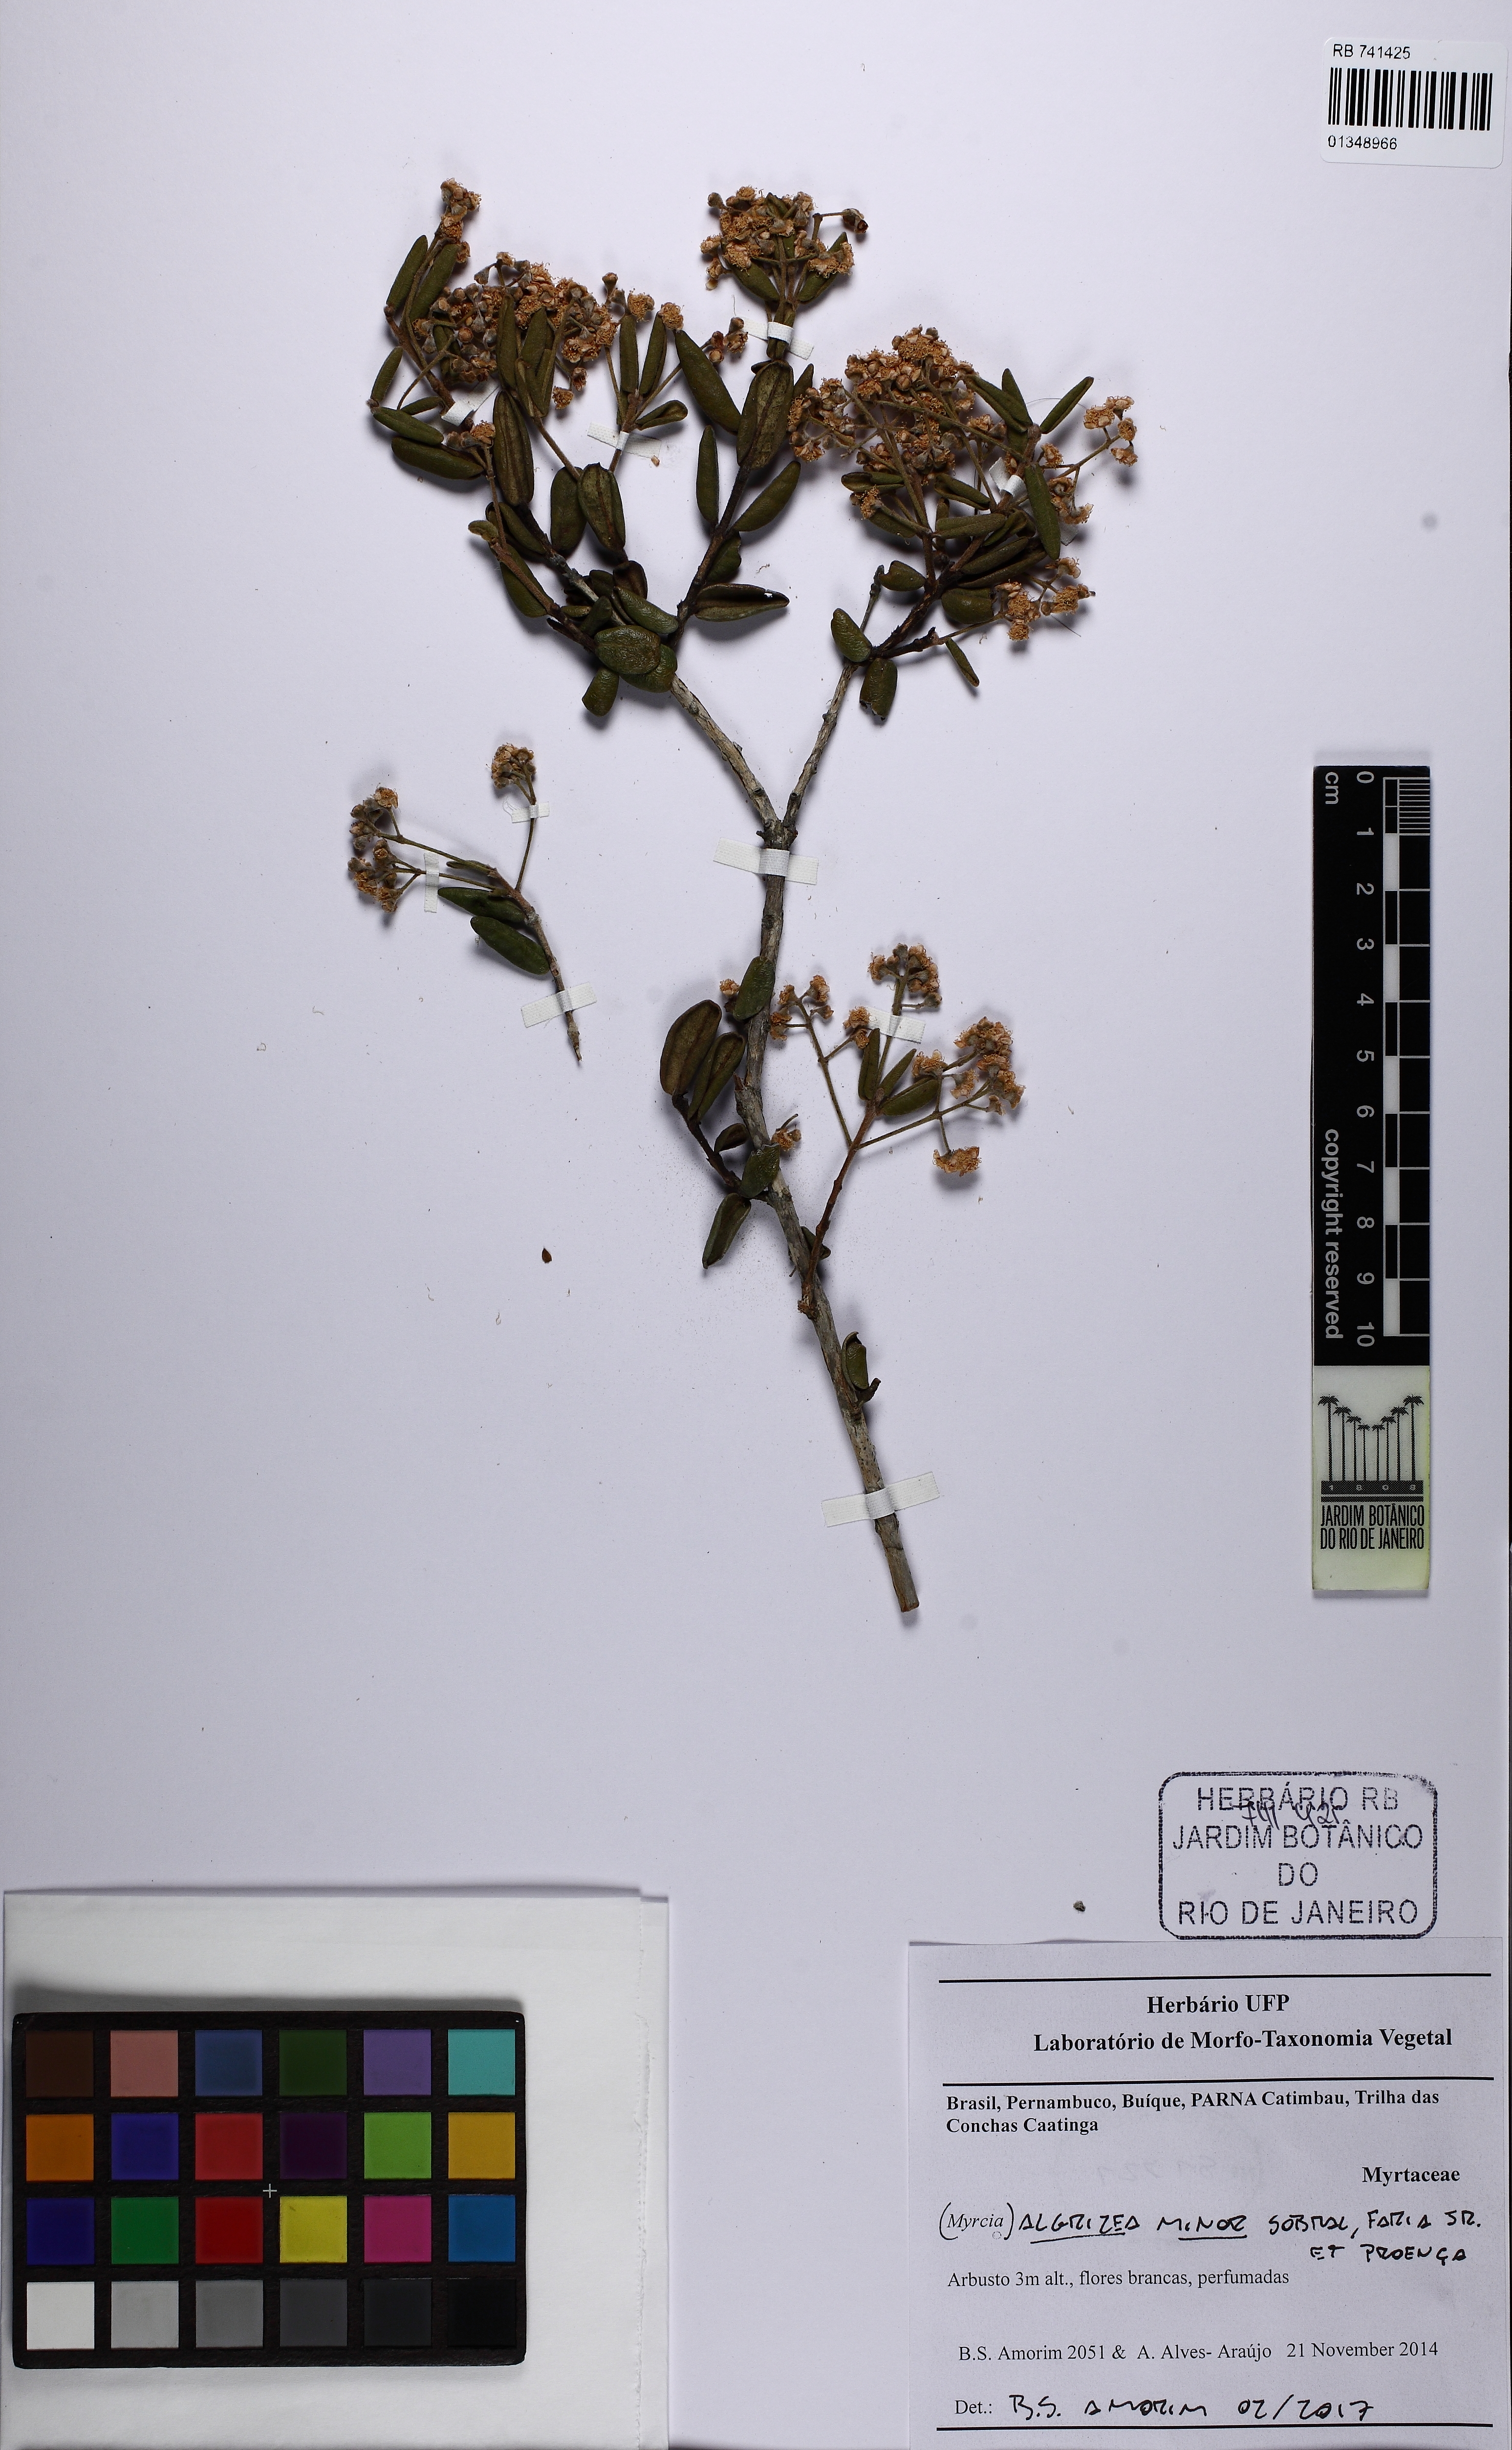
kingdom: Plantae
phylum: Tracheophyta
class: Magnoliopsida
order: Myrtales
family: Myrtaceae
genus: Algrizea
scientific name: Algrizea minor
